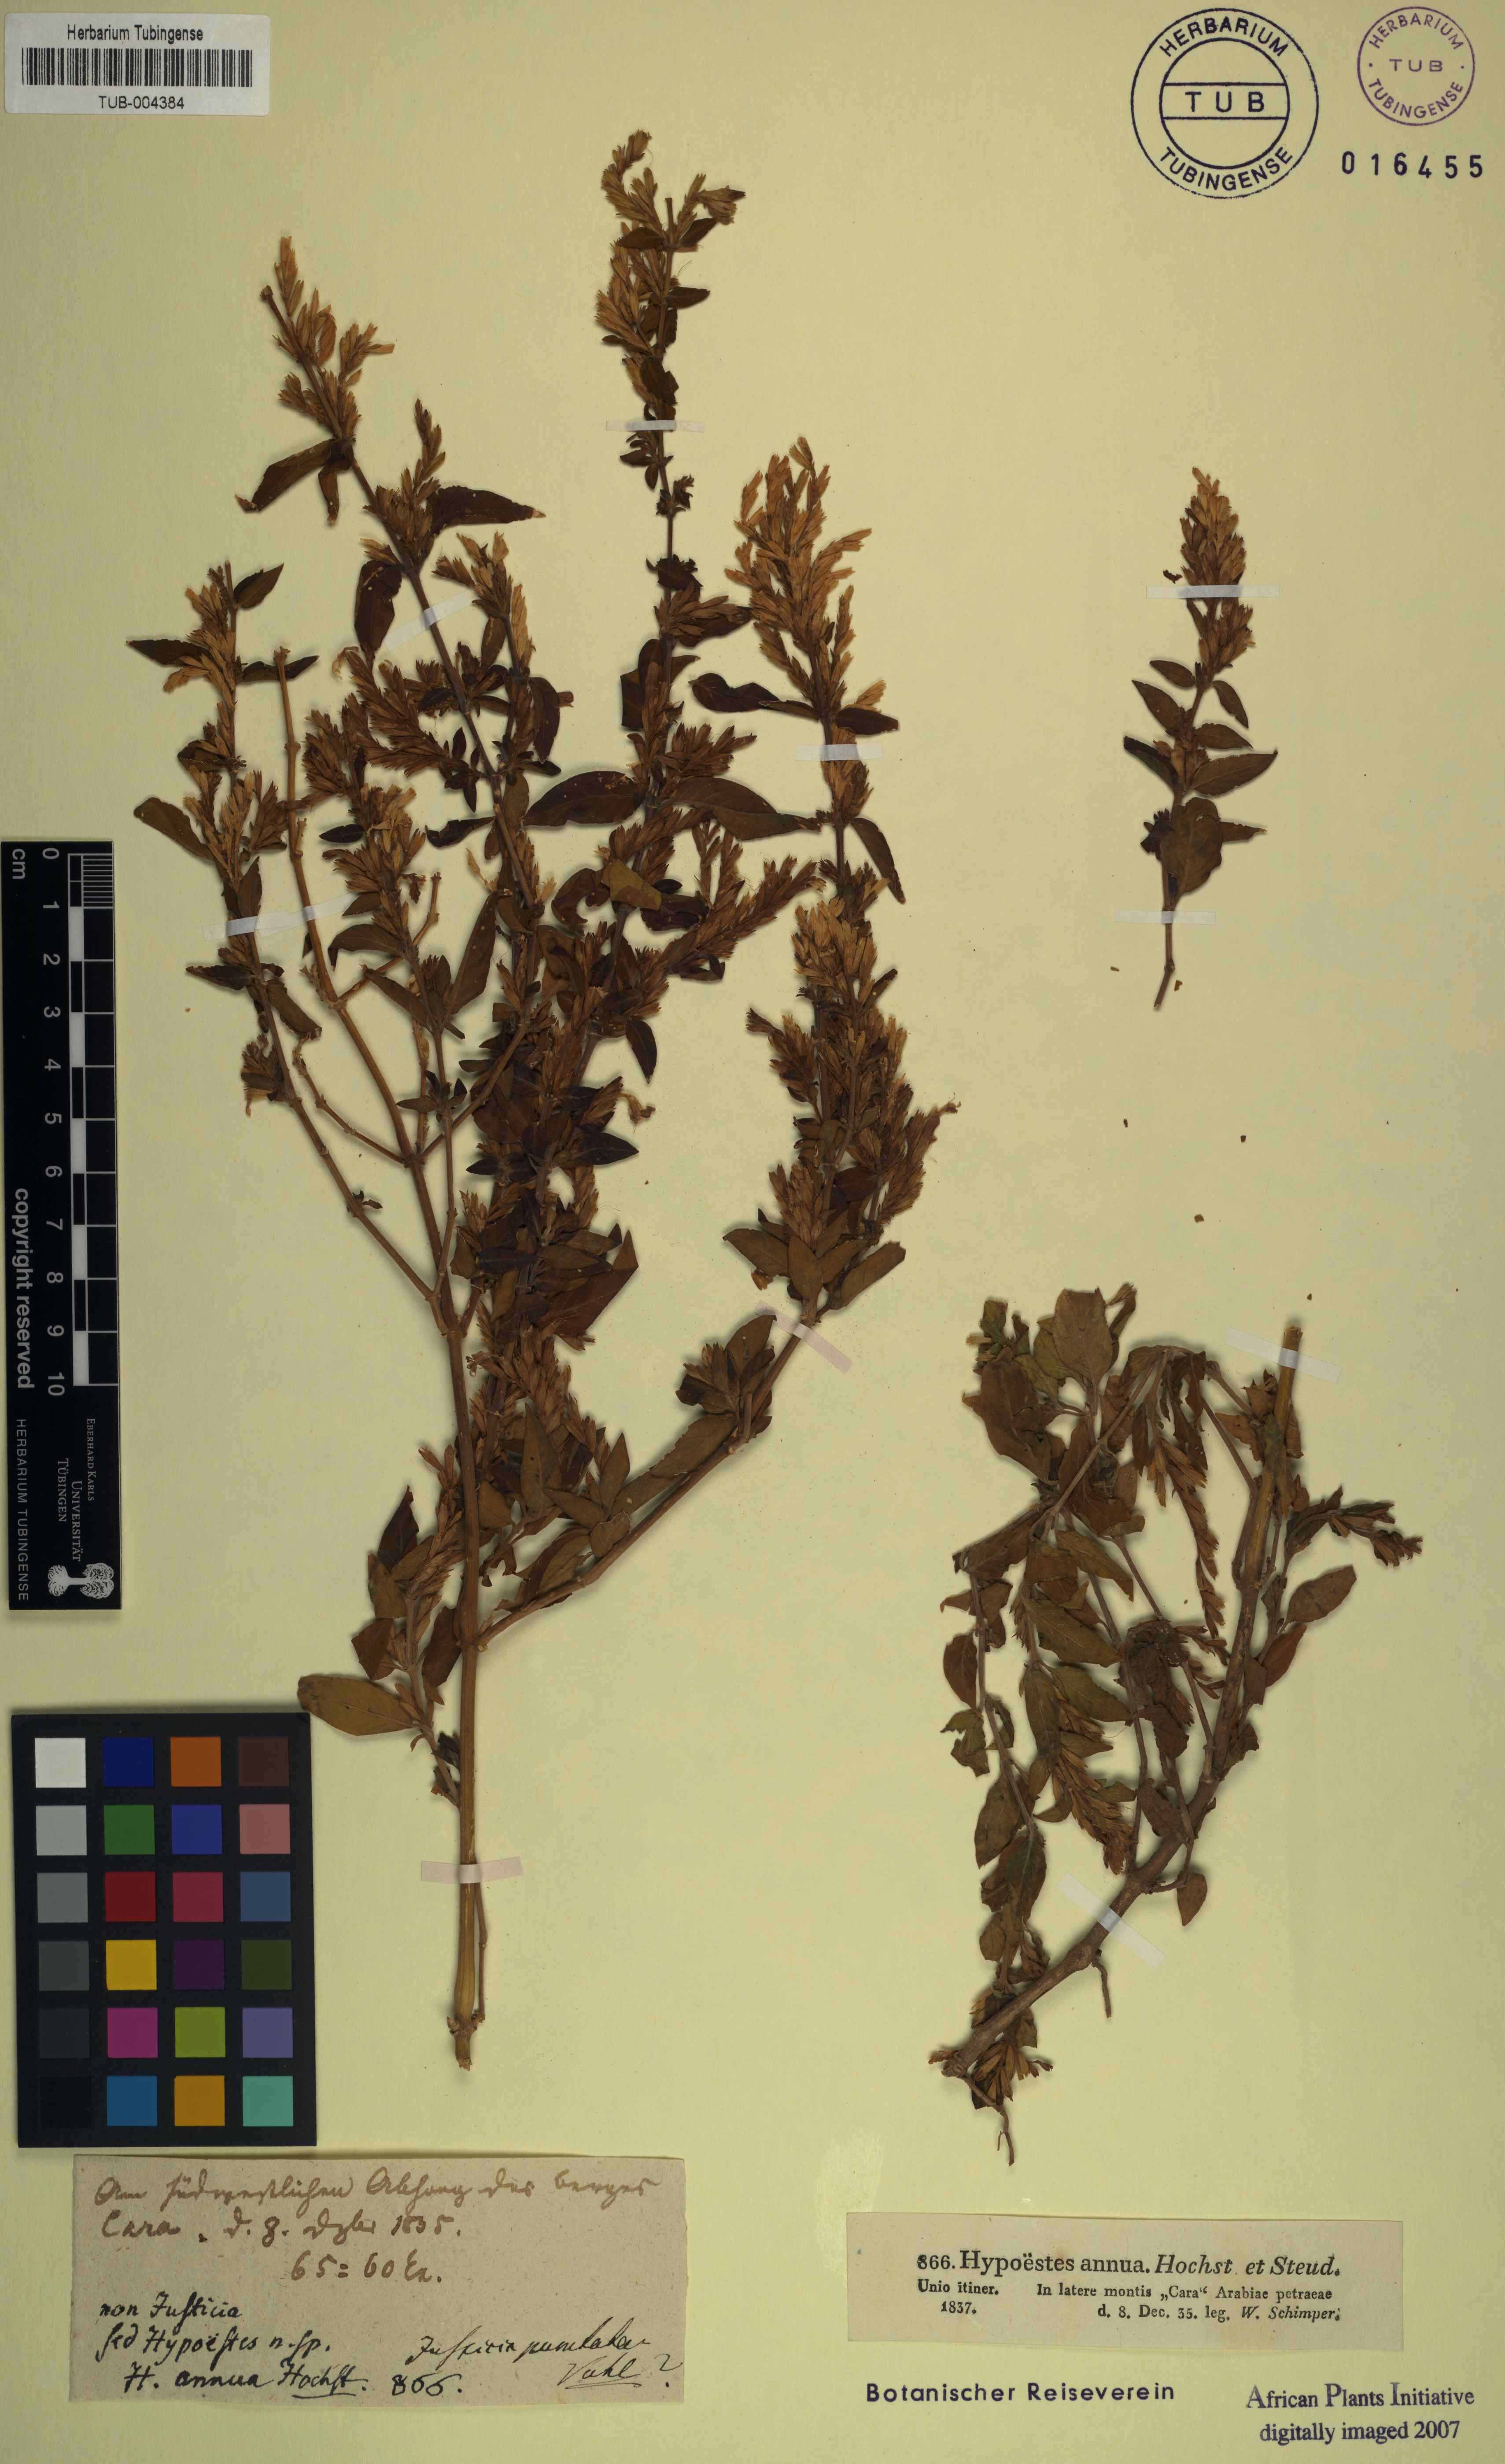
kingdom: Plantae
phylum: Tracheophyta
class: Magnoliopsida
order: Lamiales
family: Acanthaceae
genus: Hypoestes
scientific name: Hypoestes forskaolii
